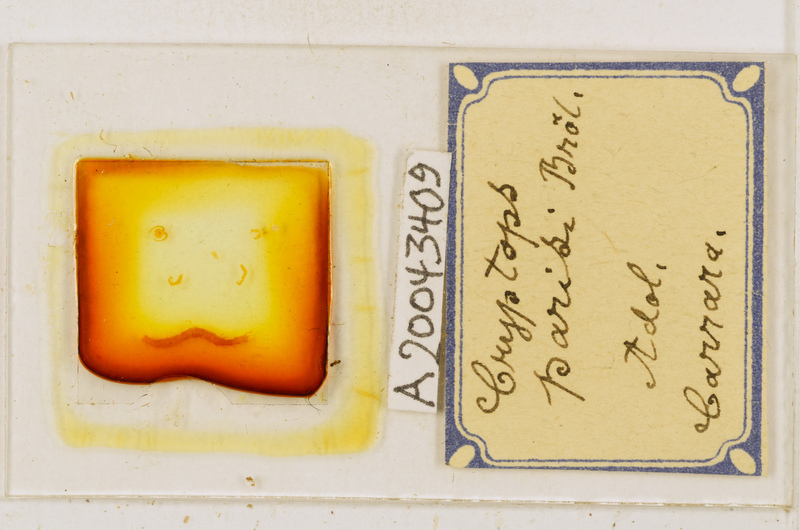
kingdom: Animalia
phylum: Arthropoda
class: Chilopoda
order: Scolopendromorpha
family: Cryptopidae
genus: Cryptops
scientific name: Cryptops parisi
